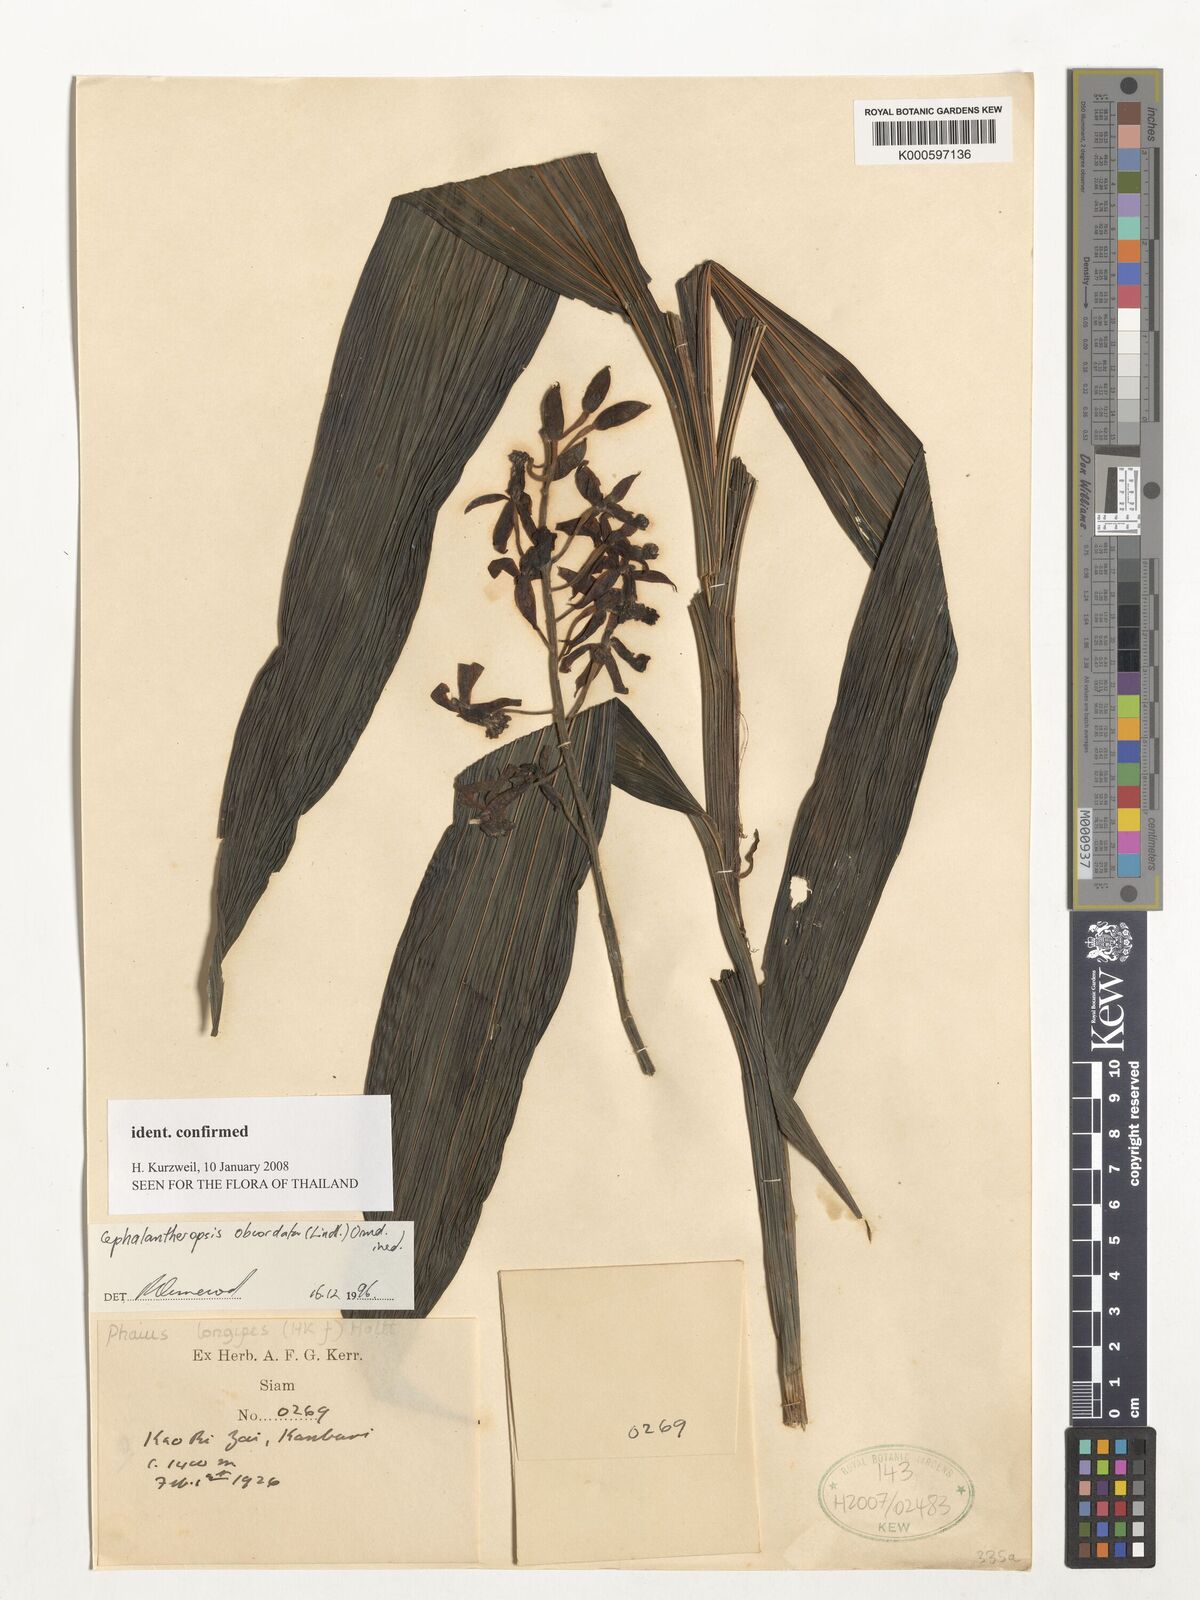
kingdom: Plantae
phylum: Tracheophyta
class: Liliopsida
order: Asparagales
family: Orchidaceae
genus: Calanthe
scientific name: Calanthe obcordata
